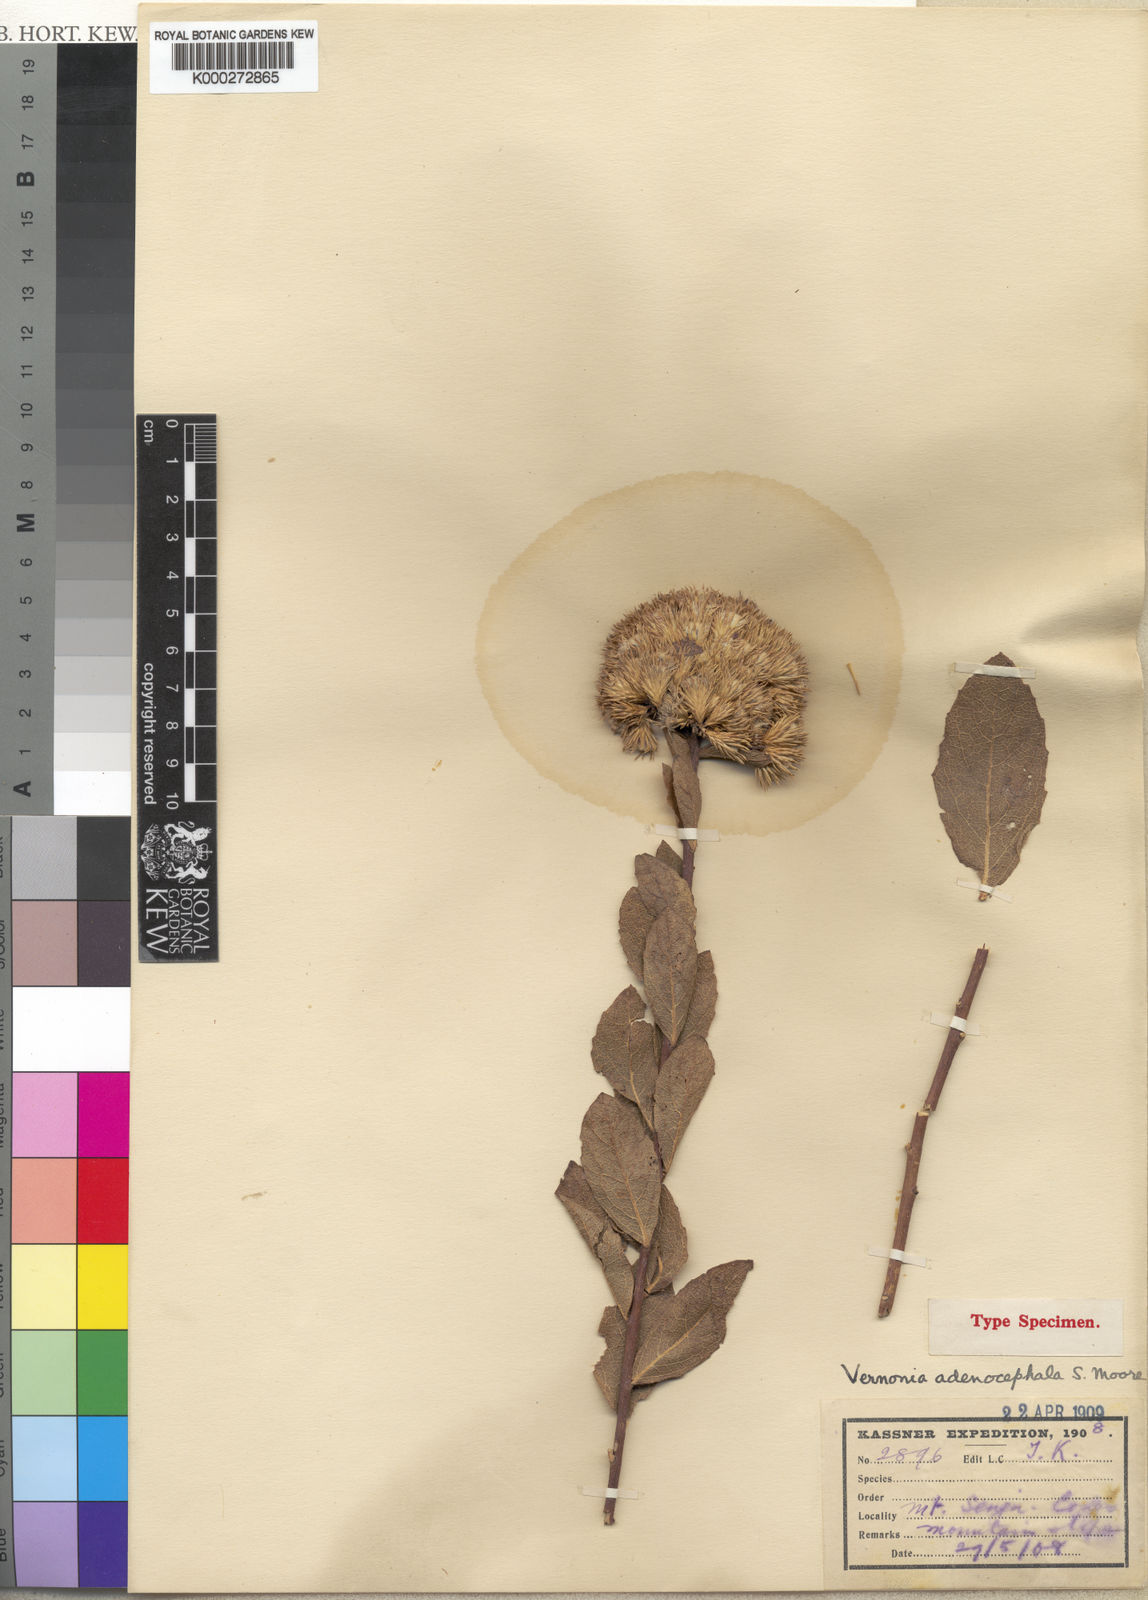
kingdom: Plantae
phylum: Tracheophyta
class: Magnoliopsida
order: Asterales
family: Asteraceae
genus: Vernonia
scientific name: Vernonia adenocephala
